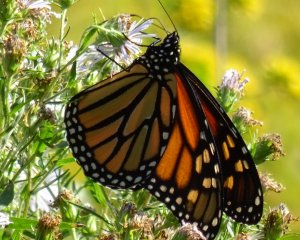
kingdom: Animalia
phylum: Arthropoda
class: Insecta
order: Lepidoptera
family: Nymphalidae
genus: Danaus
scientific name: Danaus plexippus
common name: Monarch
